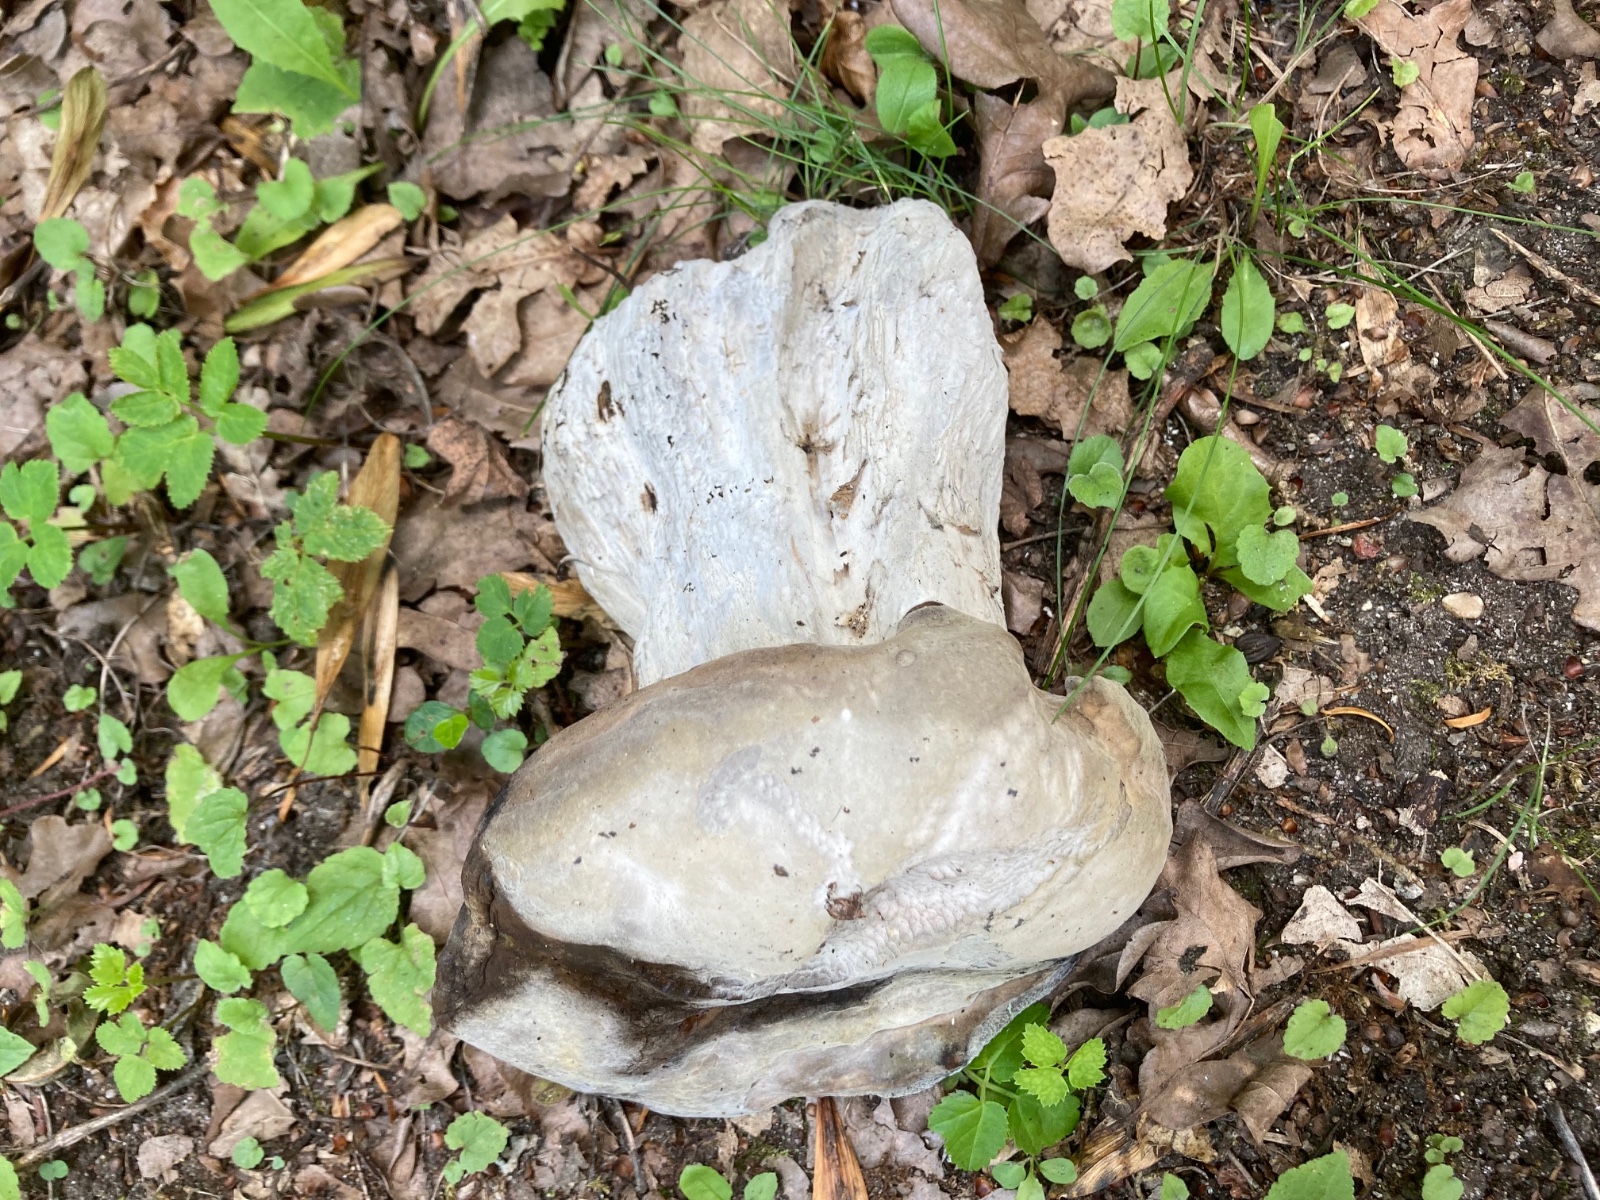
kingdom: Fungi
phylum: Ascomycota
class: Sordariomycetes
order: Hypocreales
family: Hypocreaceae
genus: Sepedonium
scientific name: Sepedonium tulasneanum
